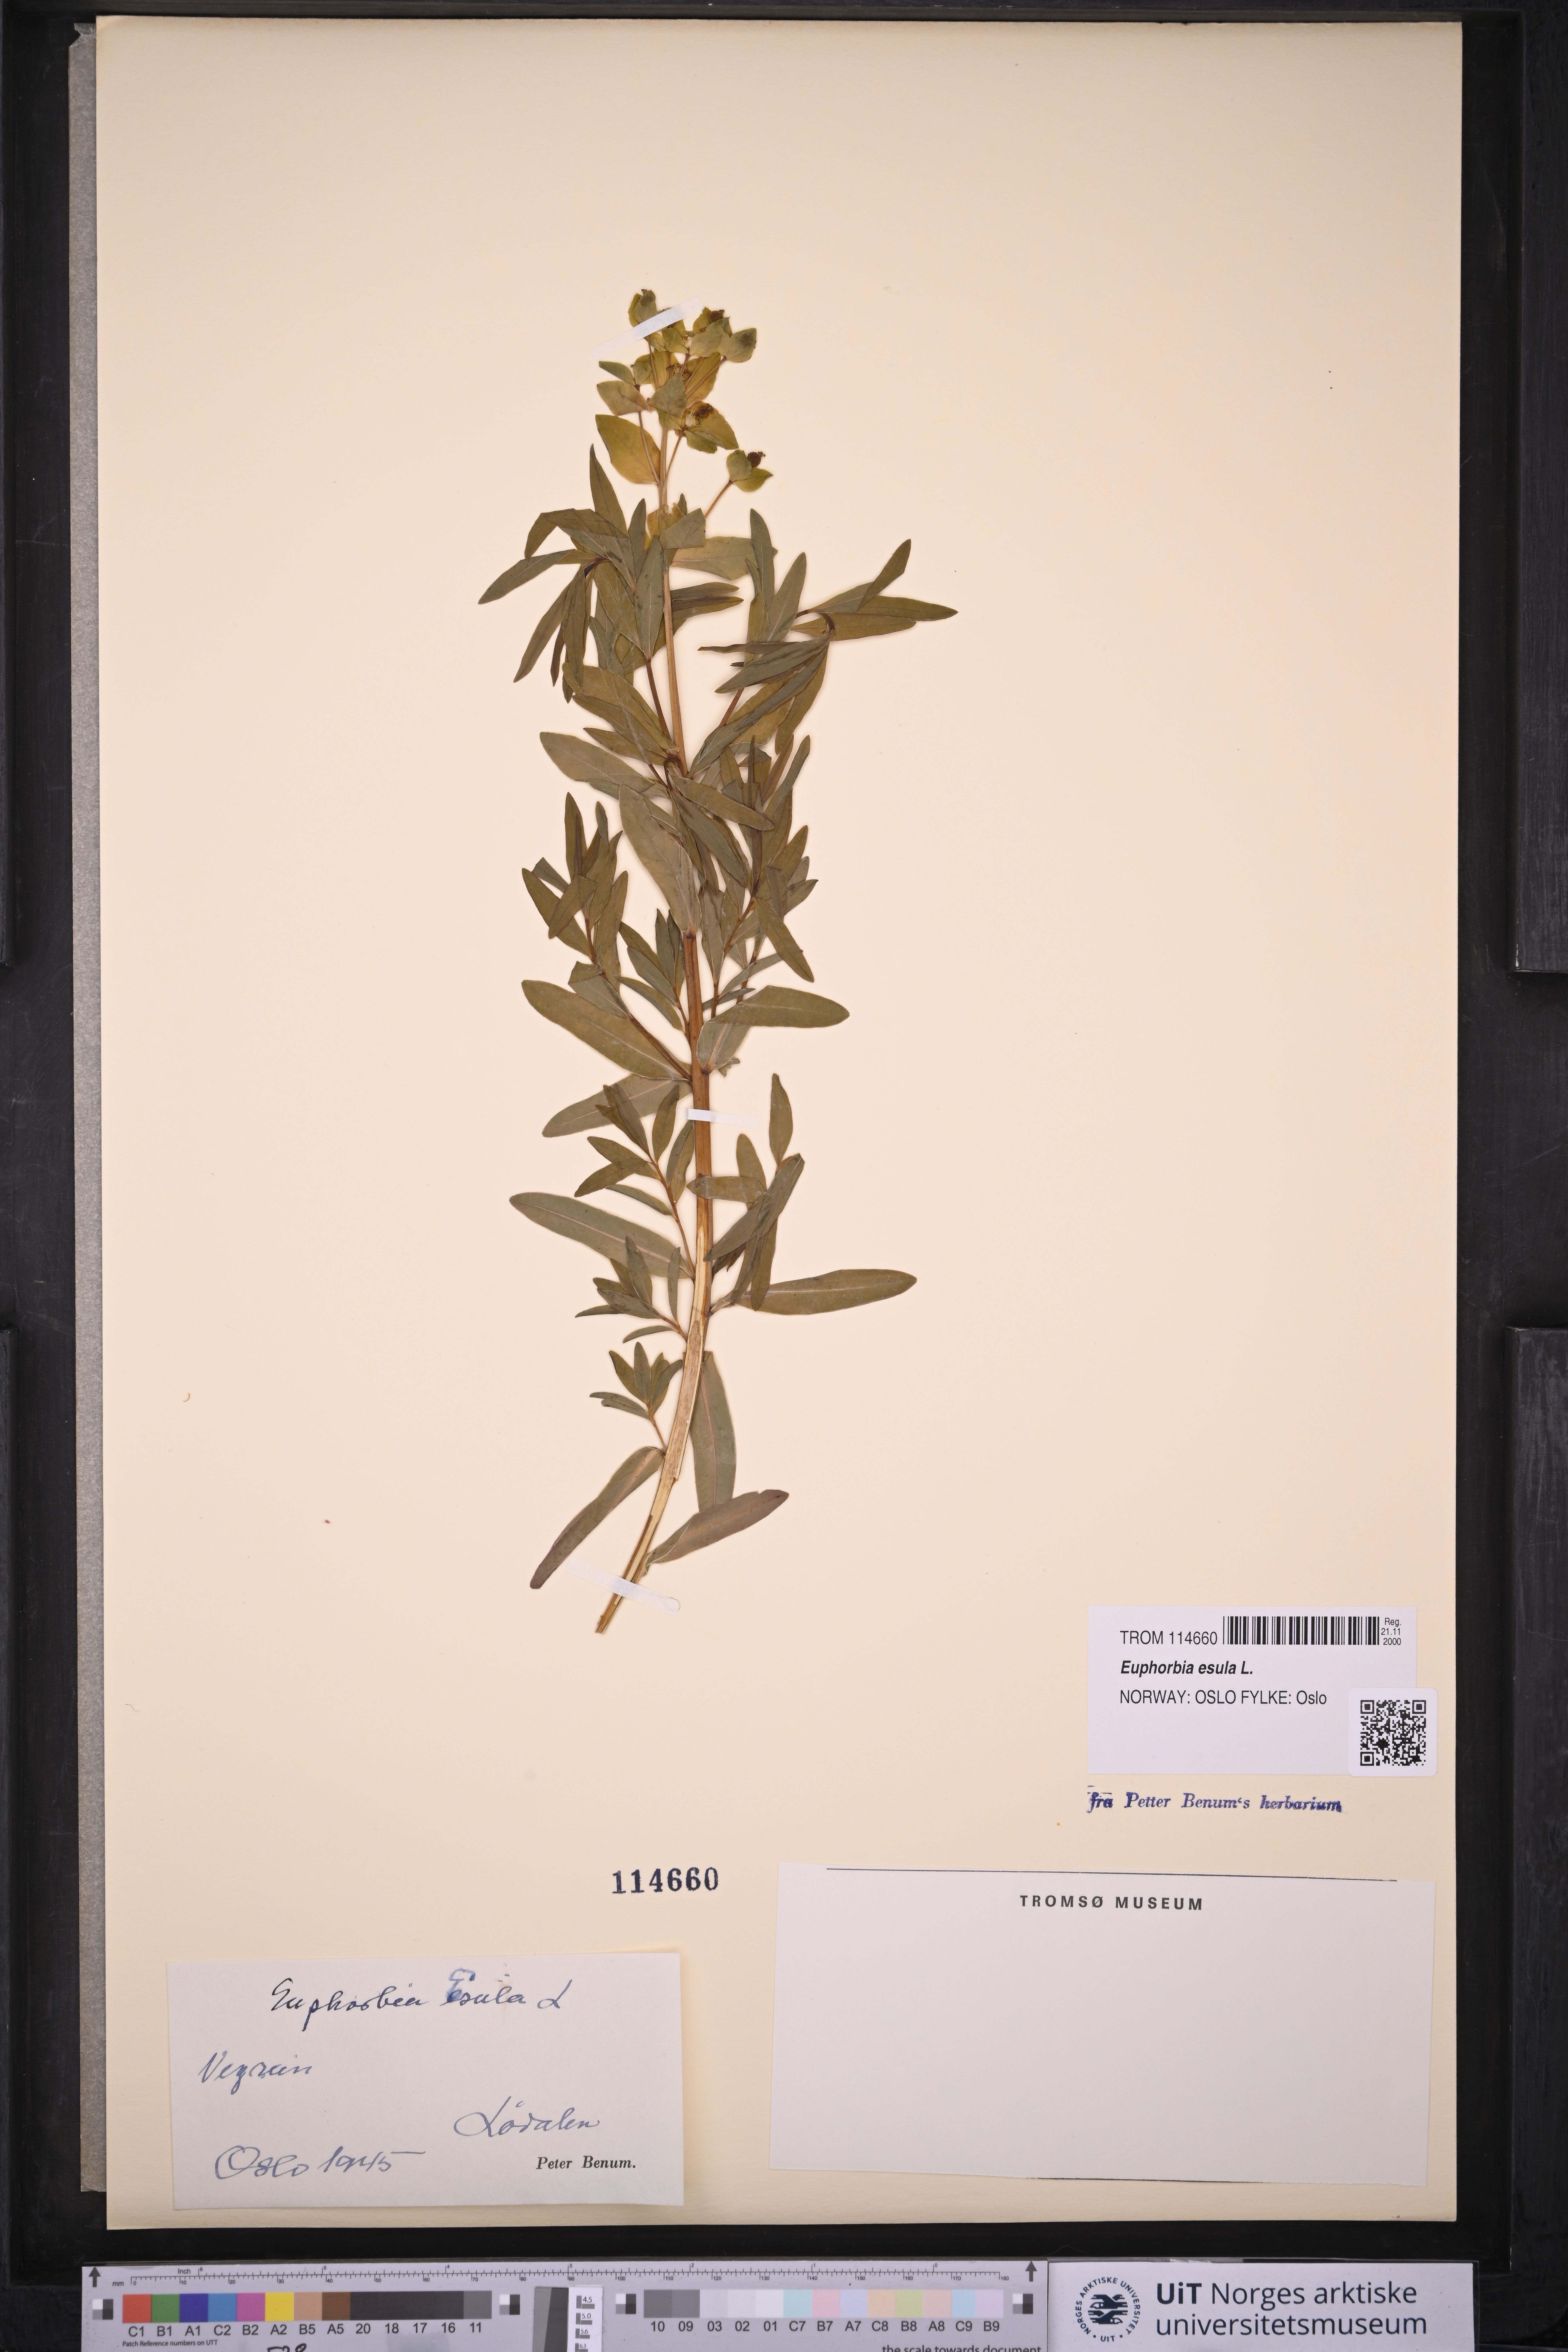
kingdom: Plantae
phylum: Tracheophyta
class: Magnoliopsida
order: Malpighiales
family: Euphorbiaceae
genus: Euphorbia
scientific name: Euphorbia esula
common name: Leafy spurge
